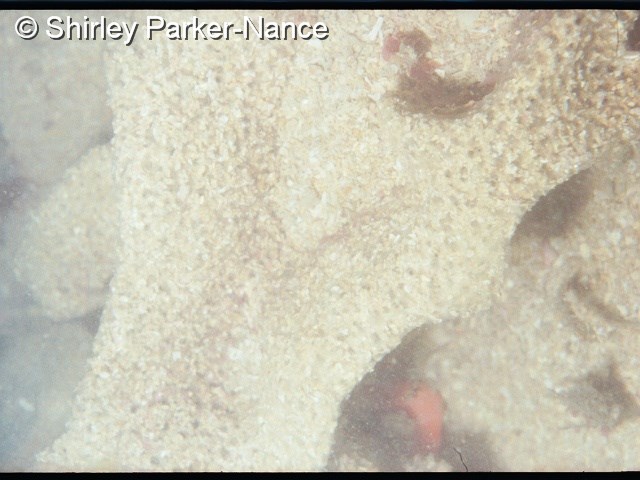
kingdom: Animalia
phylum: Porifera
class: Demospongiae
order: Poecilosclerida
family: Crellidae
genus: Crella
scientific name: Crella
